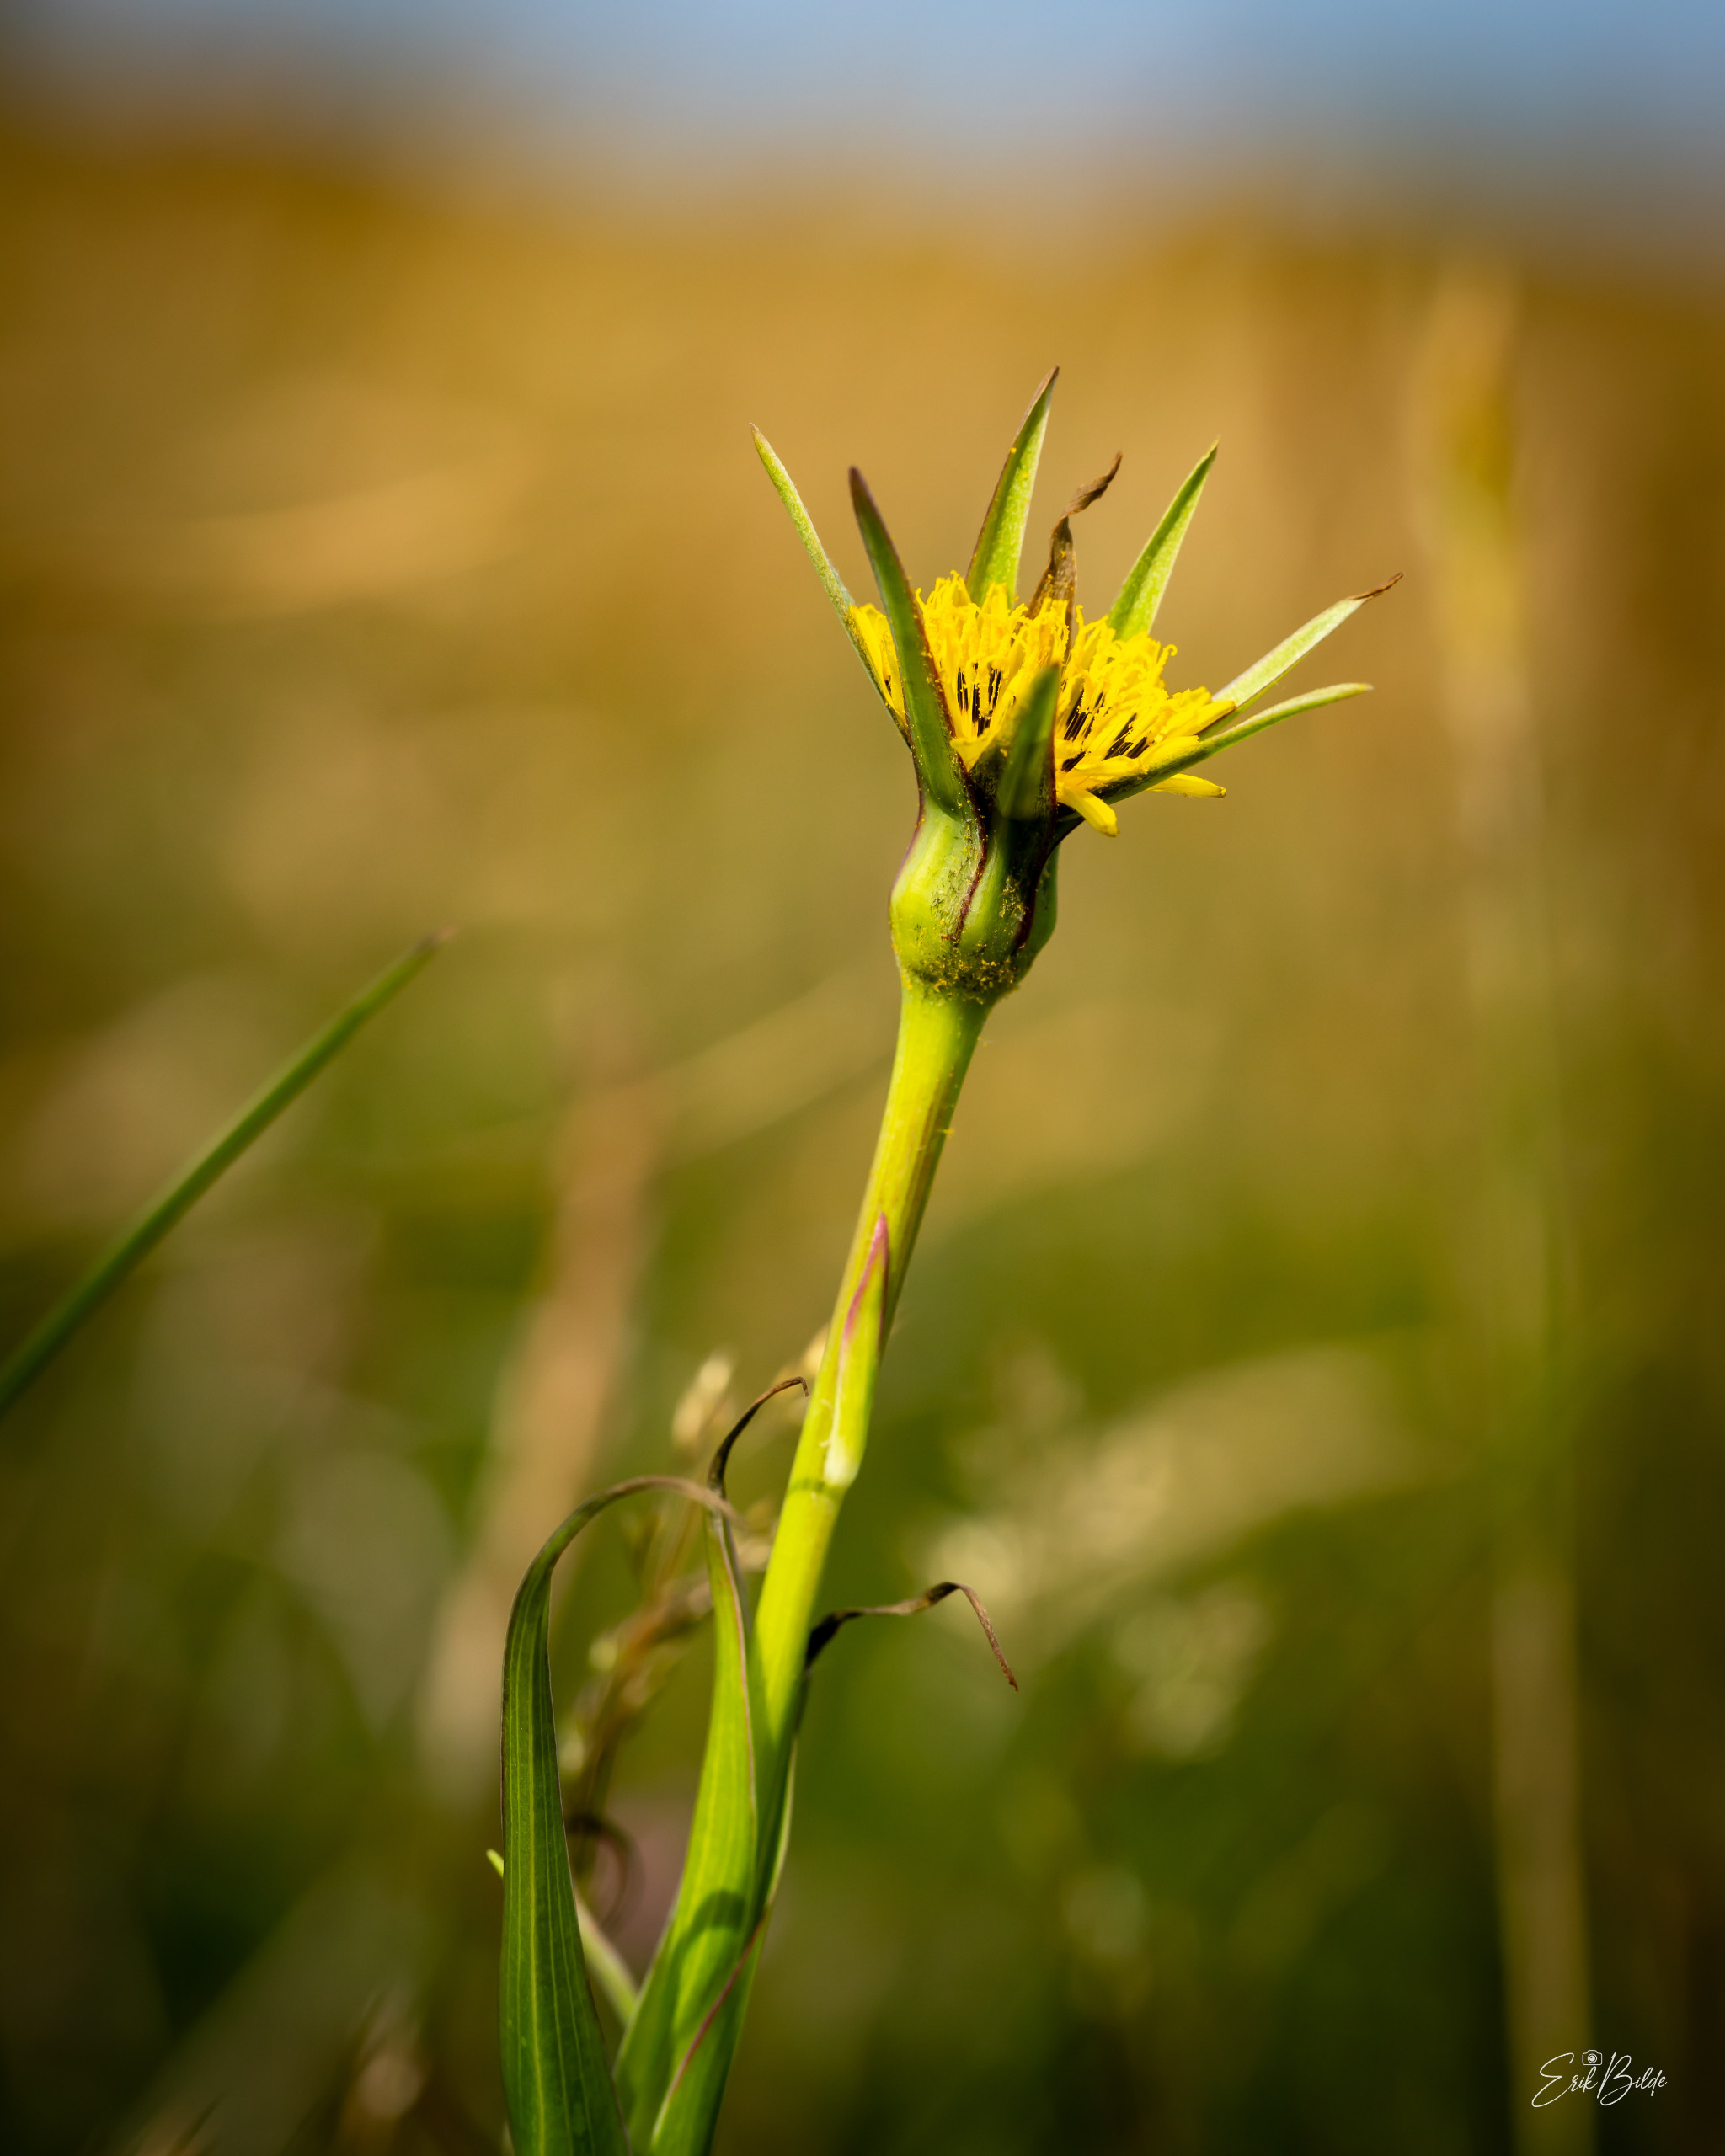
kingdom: Plantae
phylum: Tracheophyta
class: Magnoliopsida
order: Asterales
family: Asteraceae
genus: Tragopogon
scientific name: Tragopogon minor
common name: Småkronet gedeskæg
